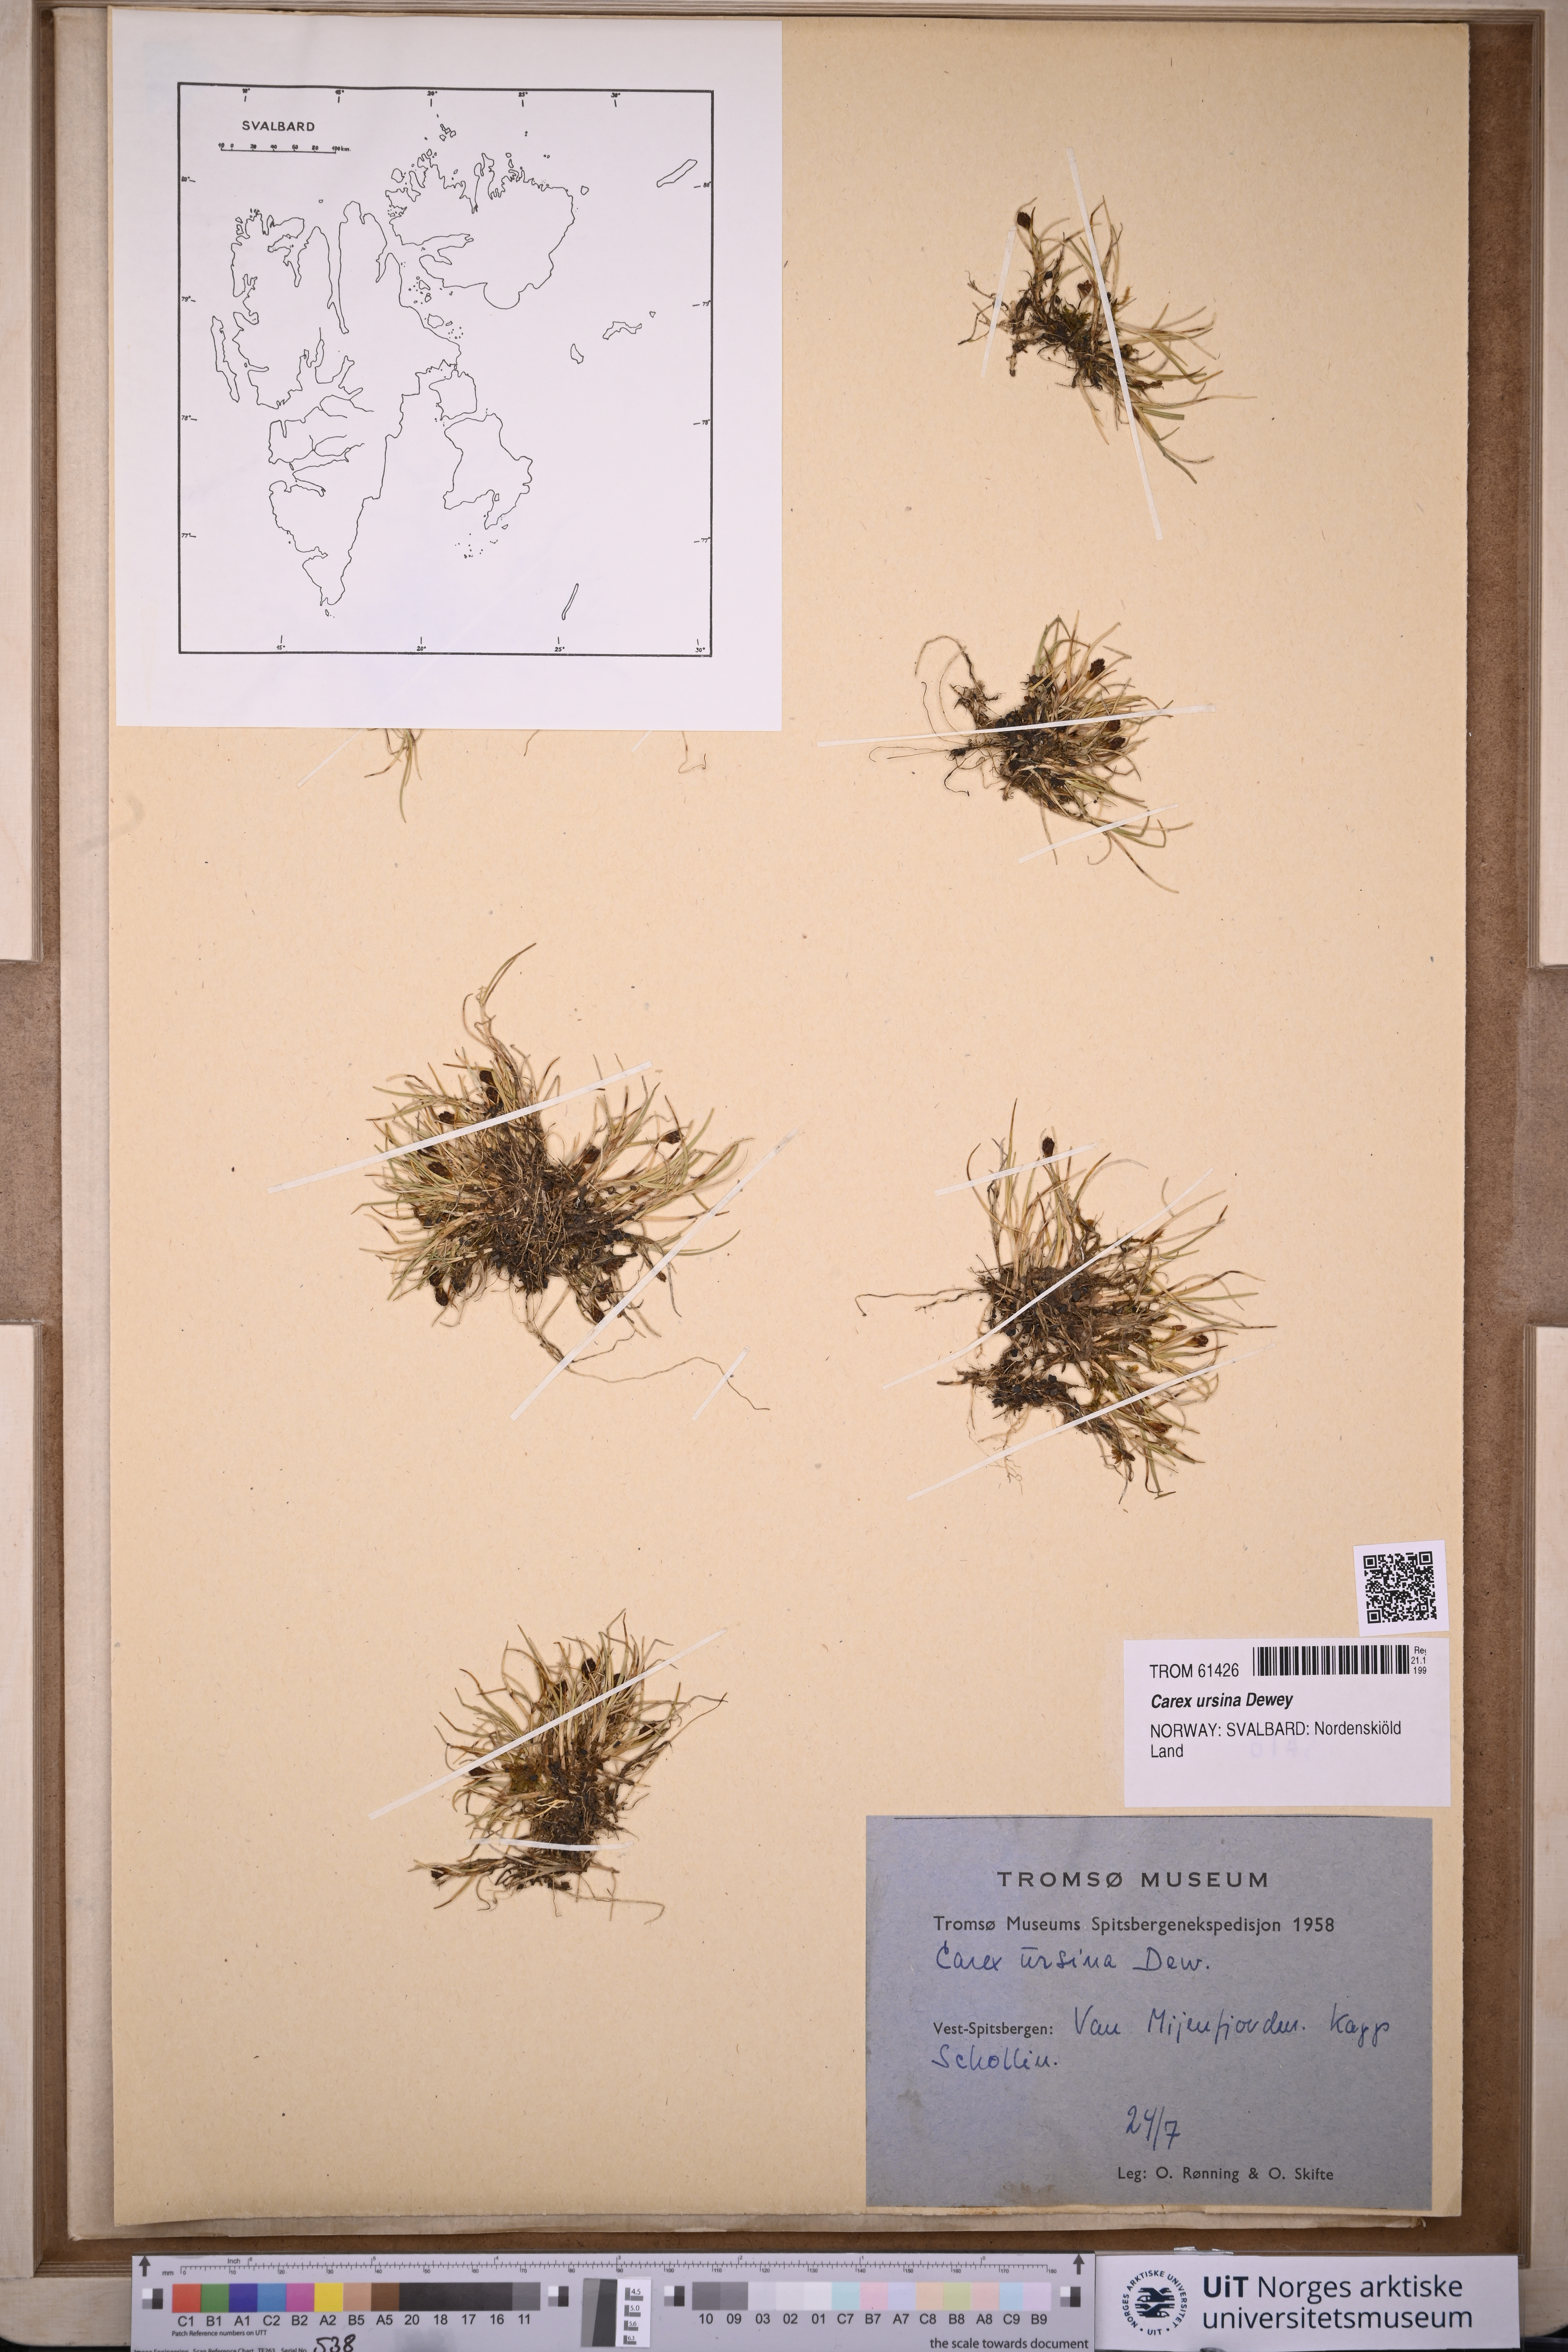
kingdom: Plantae
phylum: Tracheophyta
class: Liliopsida
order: Poales
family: Cyperaceae
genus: Carex
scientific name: Carex ursina
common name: Bear sedge
